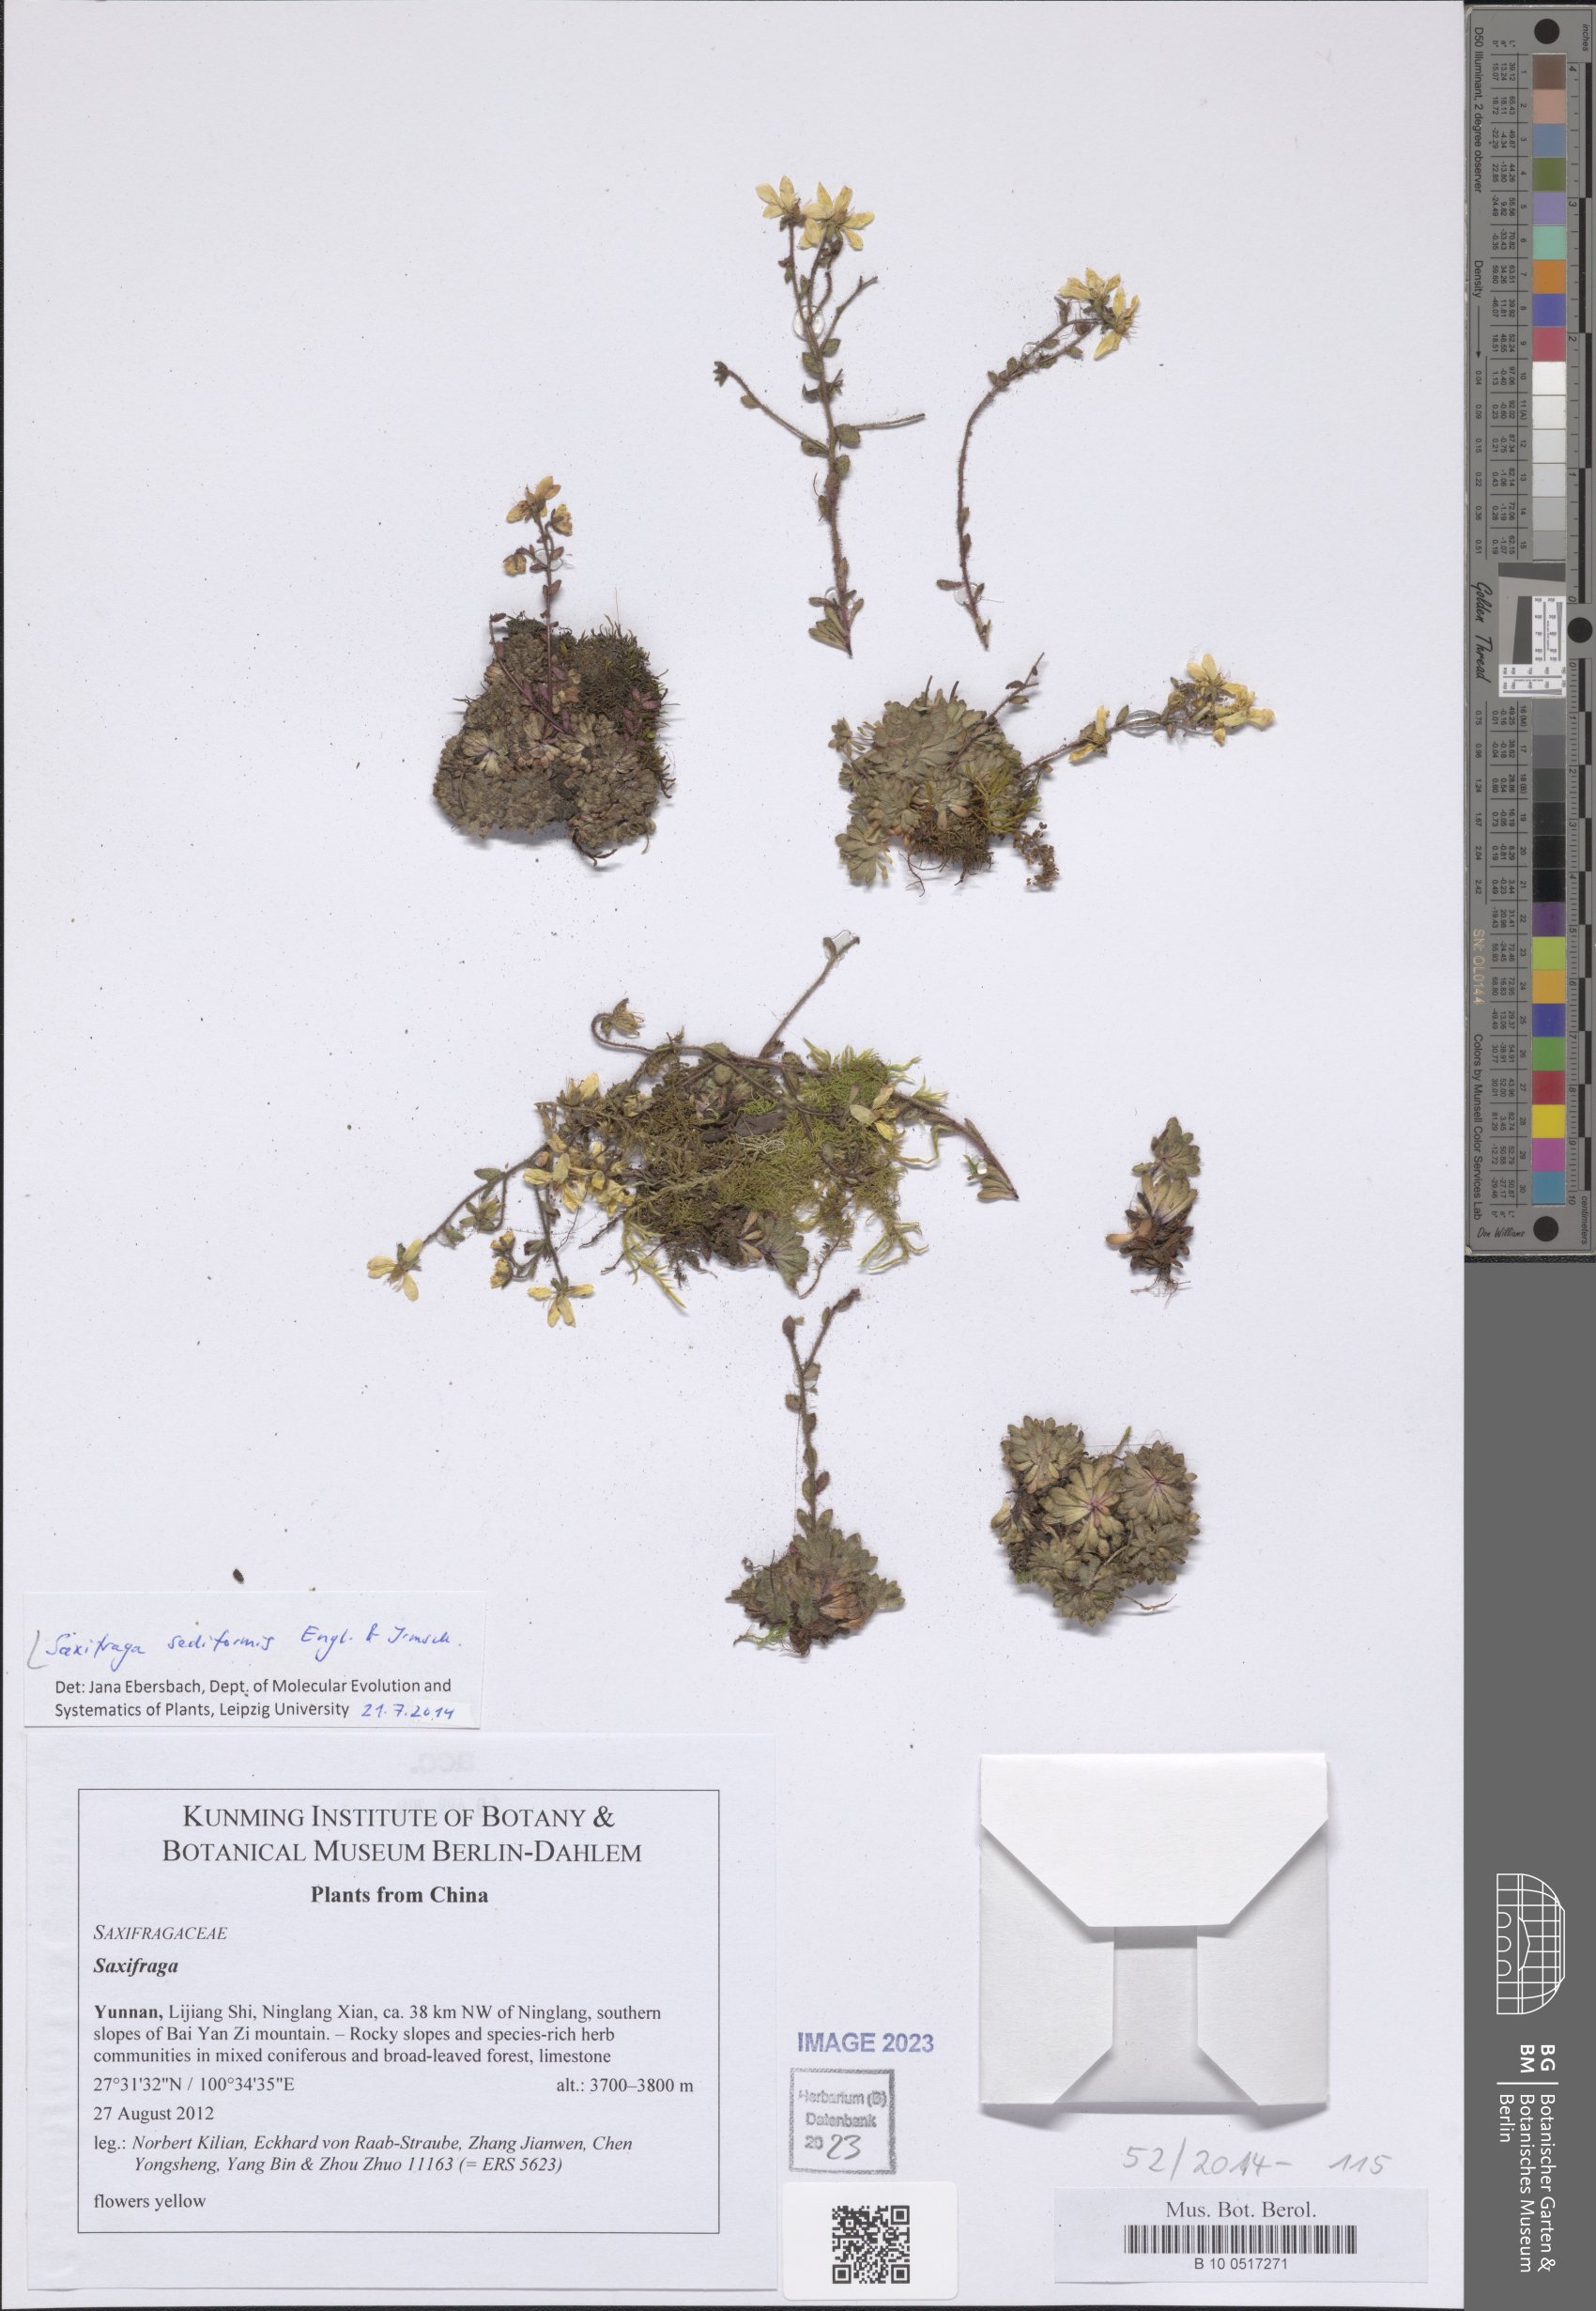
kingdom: Plantae
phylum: Tracheophyta
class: Magnoliopsida
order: Saxifragales
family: Saxifragaceae
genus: Saxifraga
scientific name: Saxifraga sediformis
